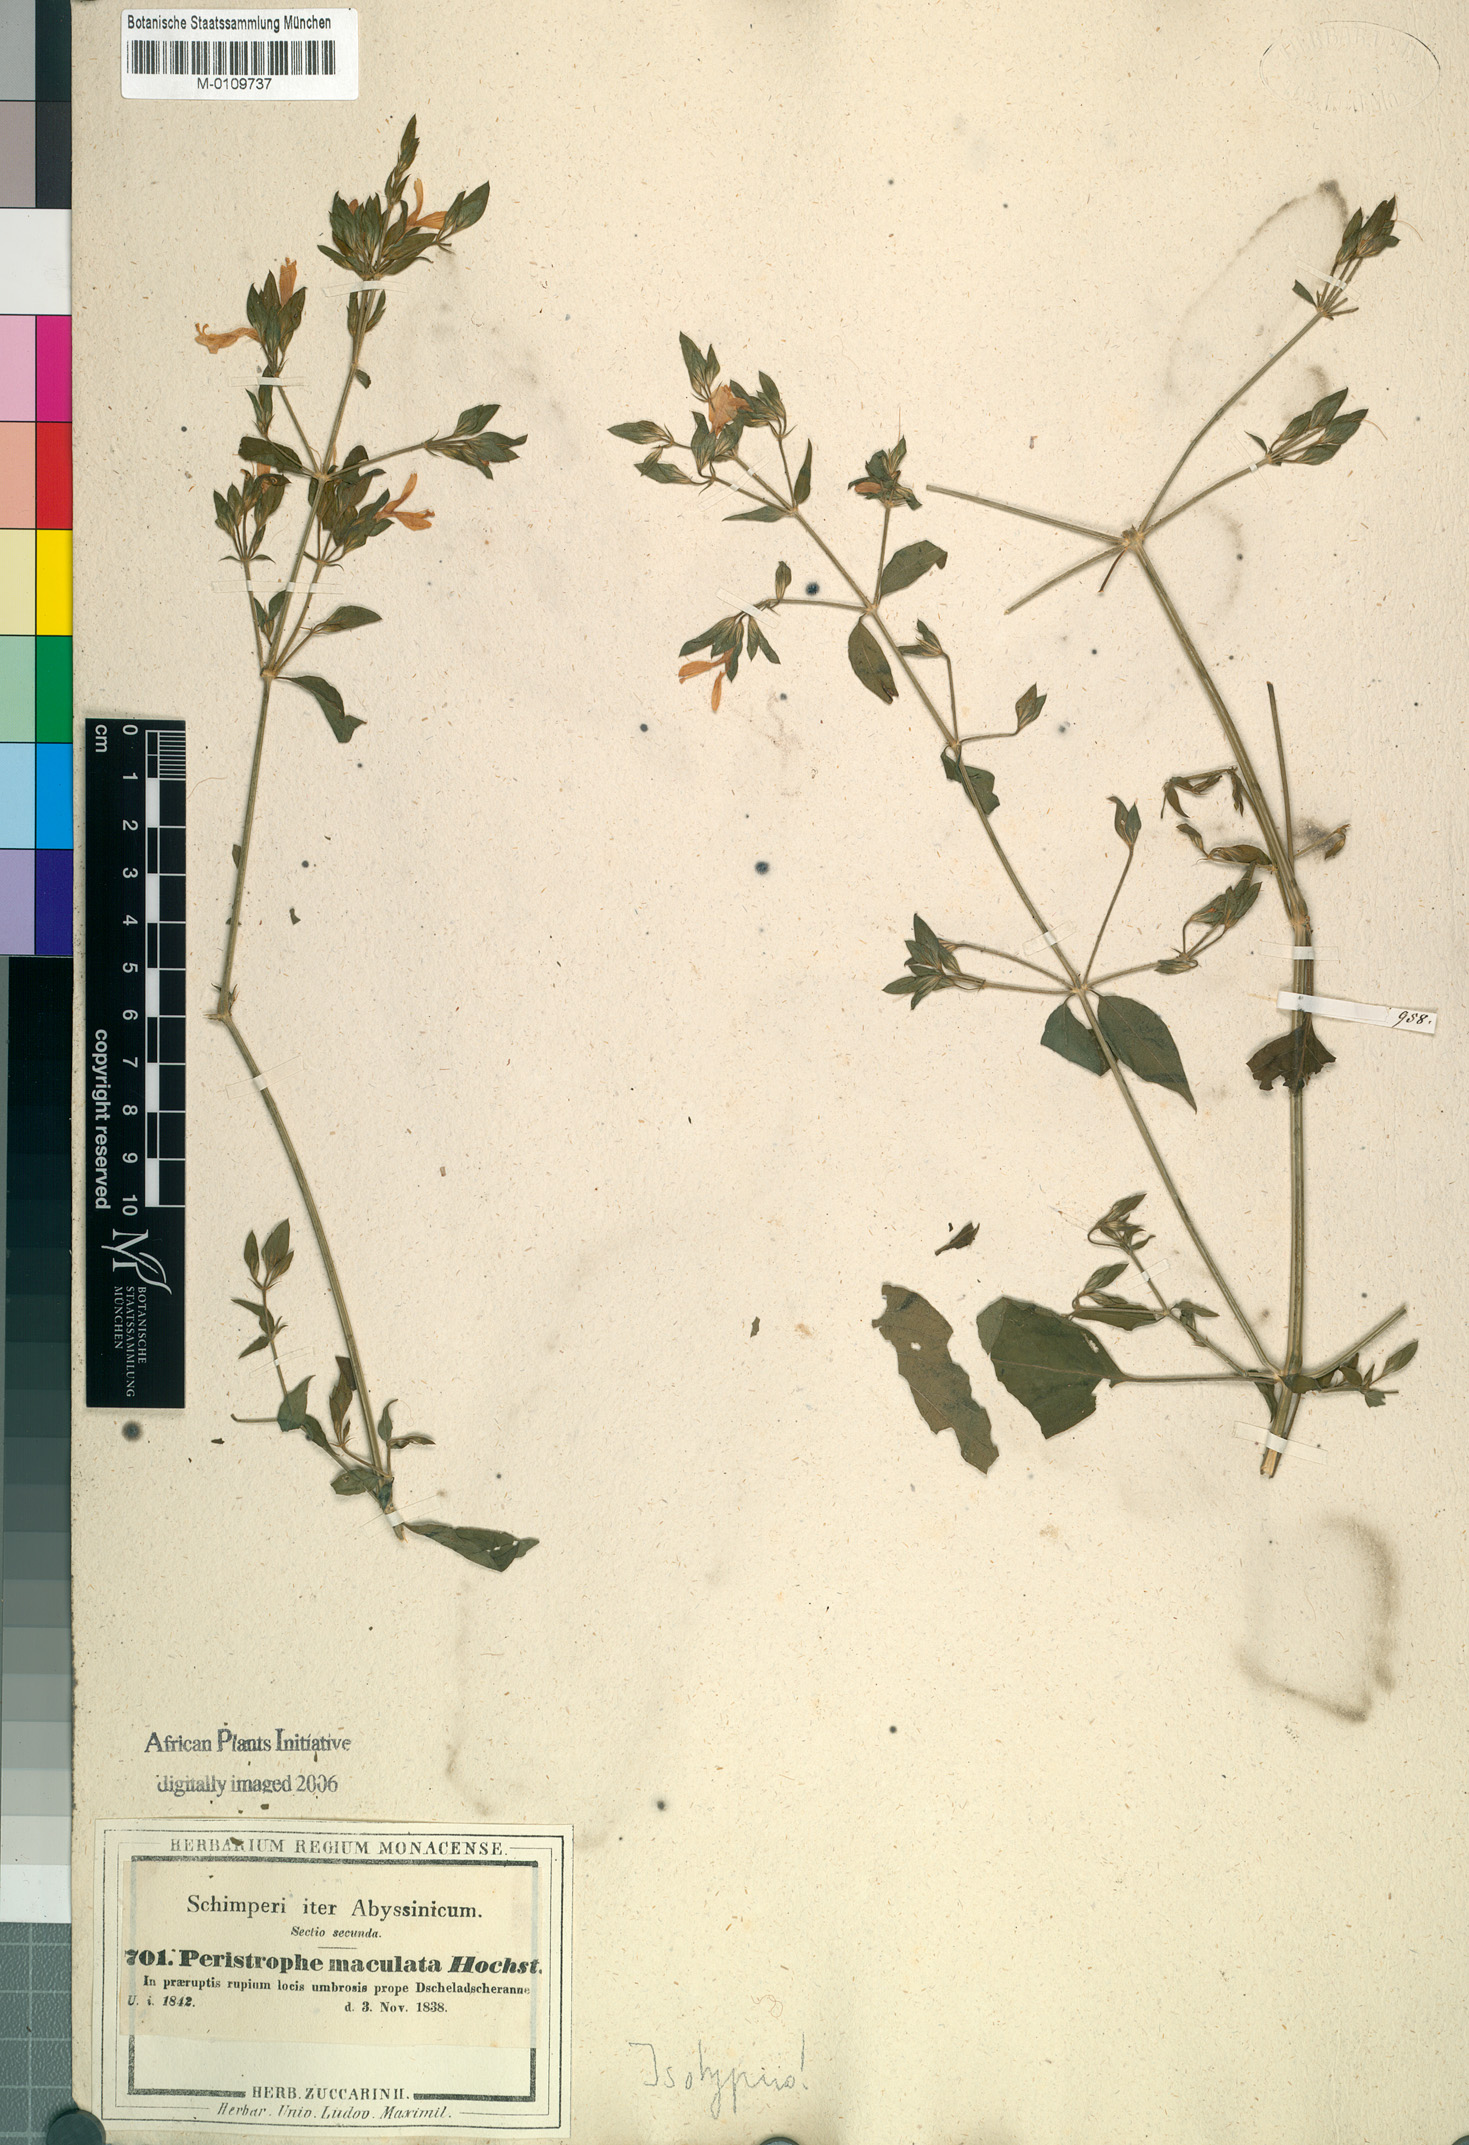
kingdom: Plantae
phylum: Tracheophyta
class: Magnoliopsida
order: Lamiales
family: Acanthaceae
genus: Dicliptera
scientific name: Dicliptera maculata
